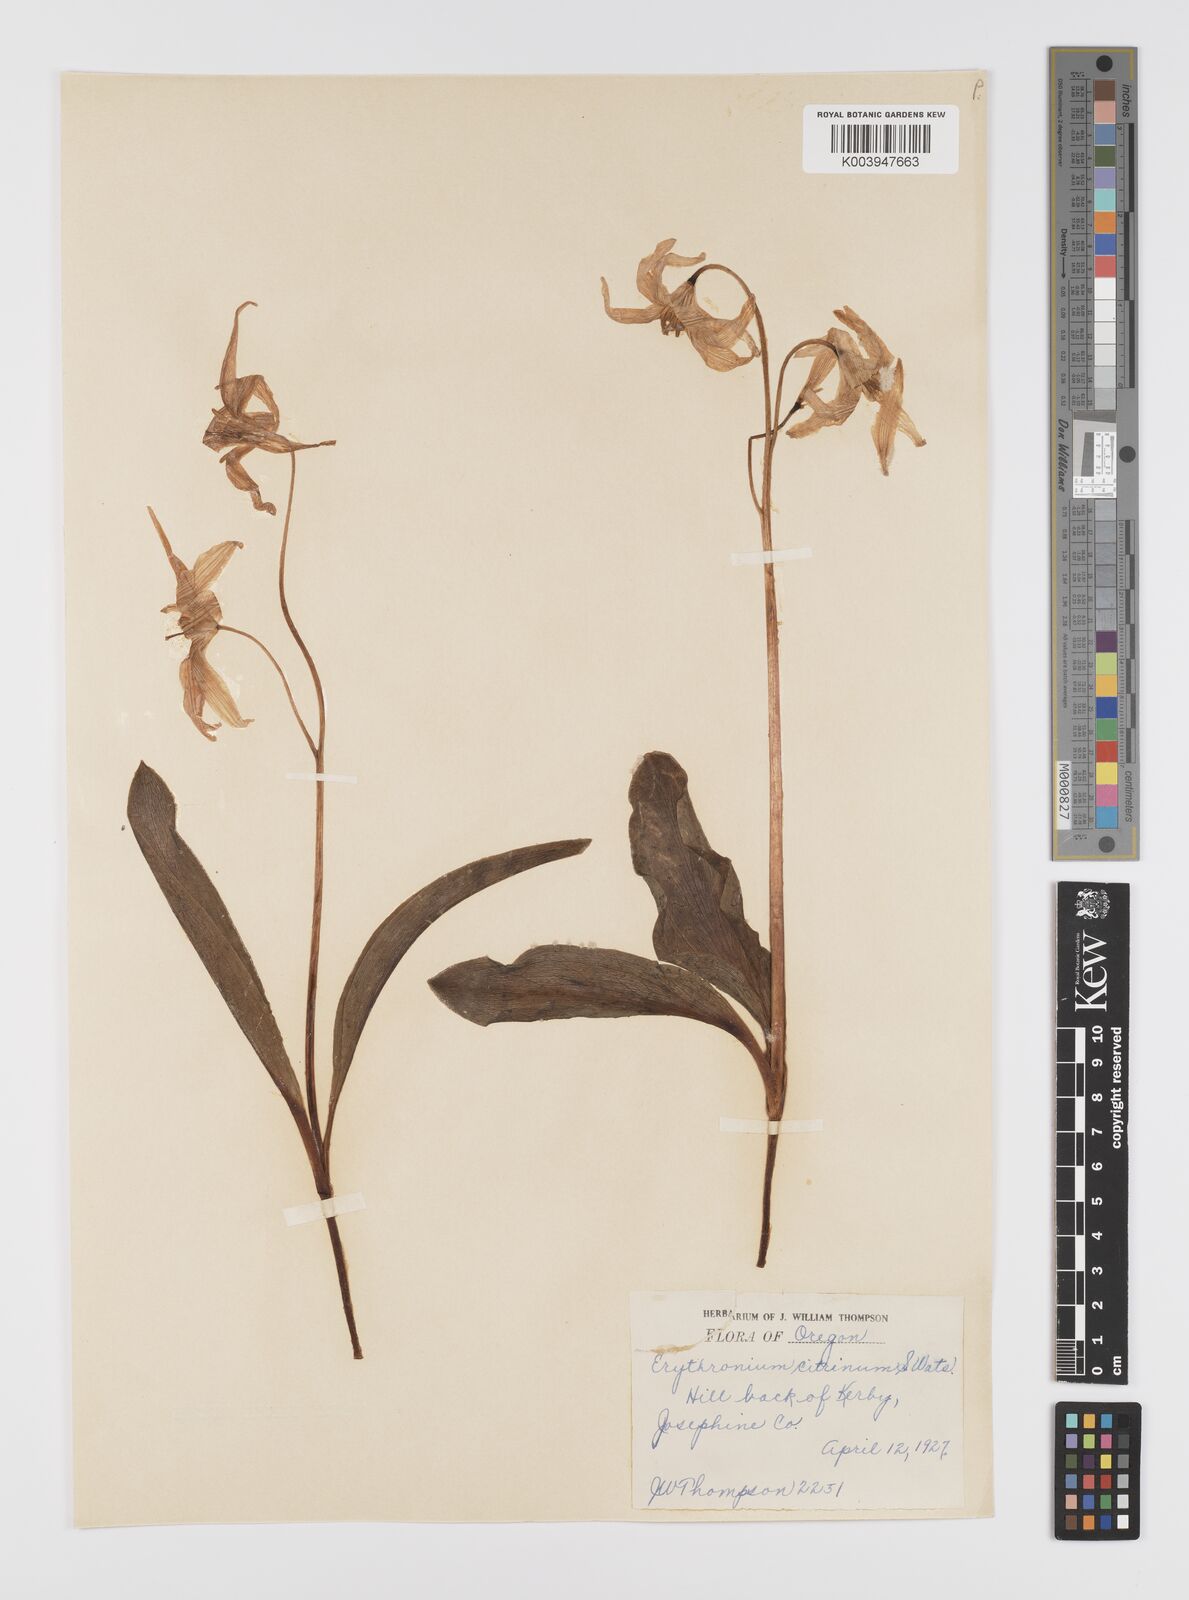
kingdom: Plantae
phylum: Tracheophyta
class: Liliopsida
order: Liliales
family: Liliaceae
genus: Erythronium
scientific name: Erythronium citrinum
